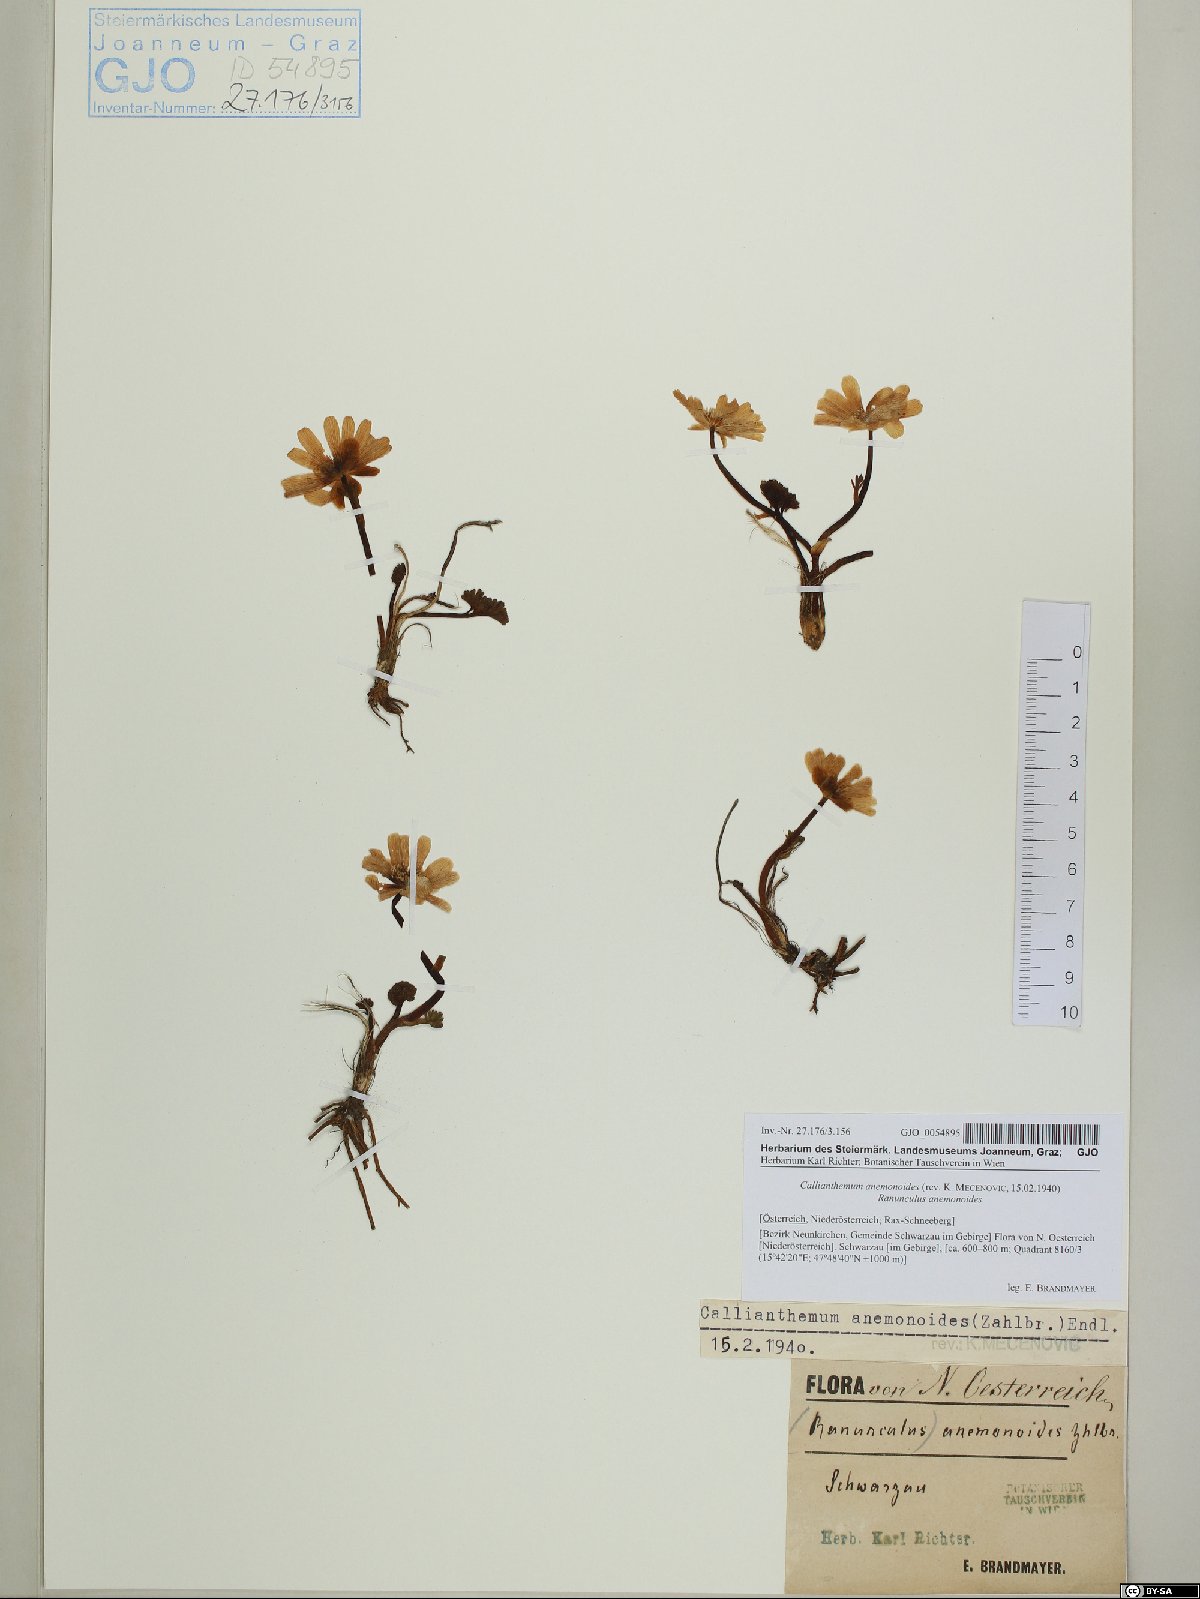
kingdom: Plantae
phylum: Tracheophyta
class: Magnoliopsida
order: Ranunculales
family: Ranunculaceae
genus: Callianthemum
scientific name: Callianthemum anemonoides
